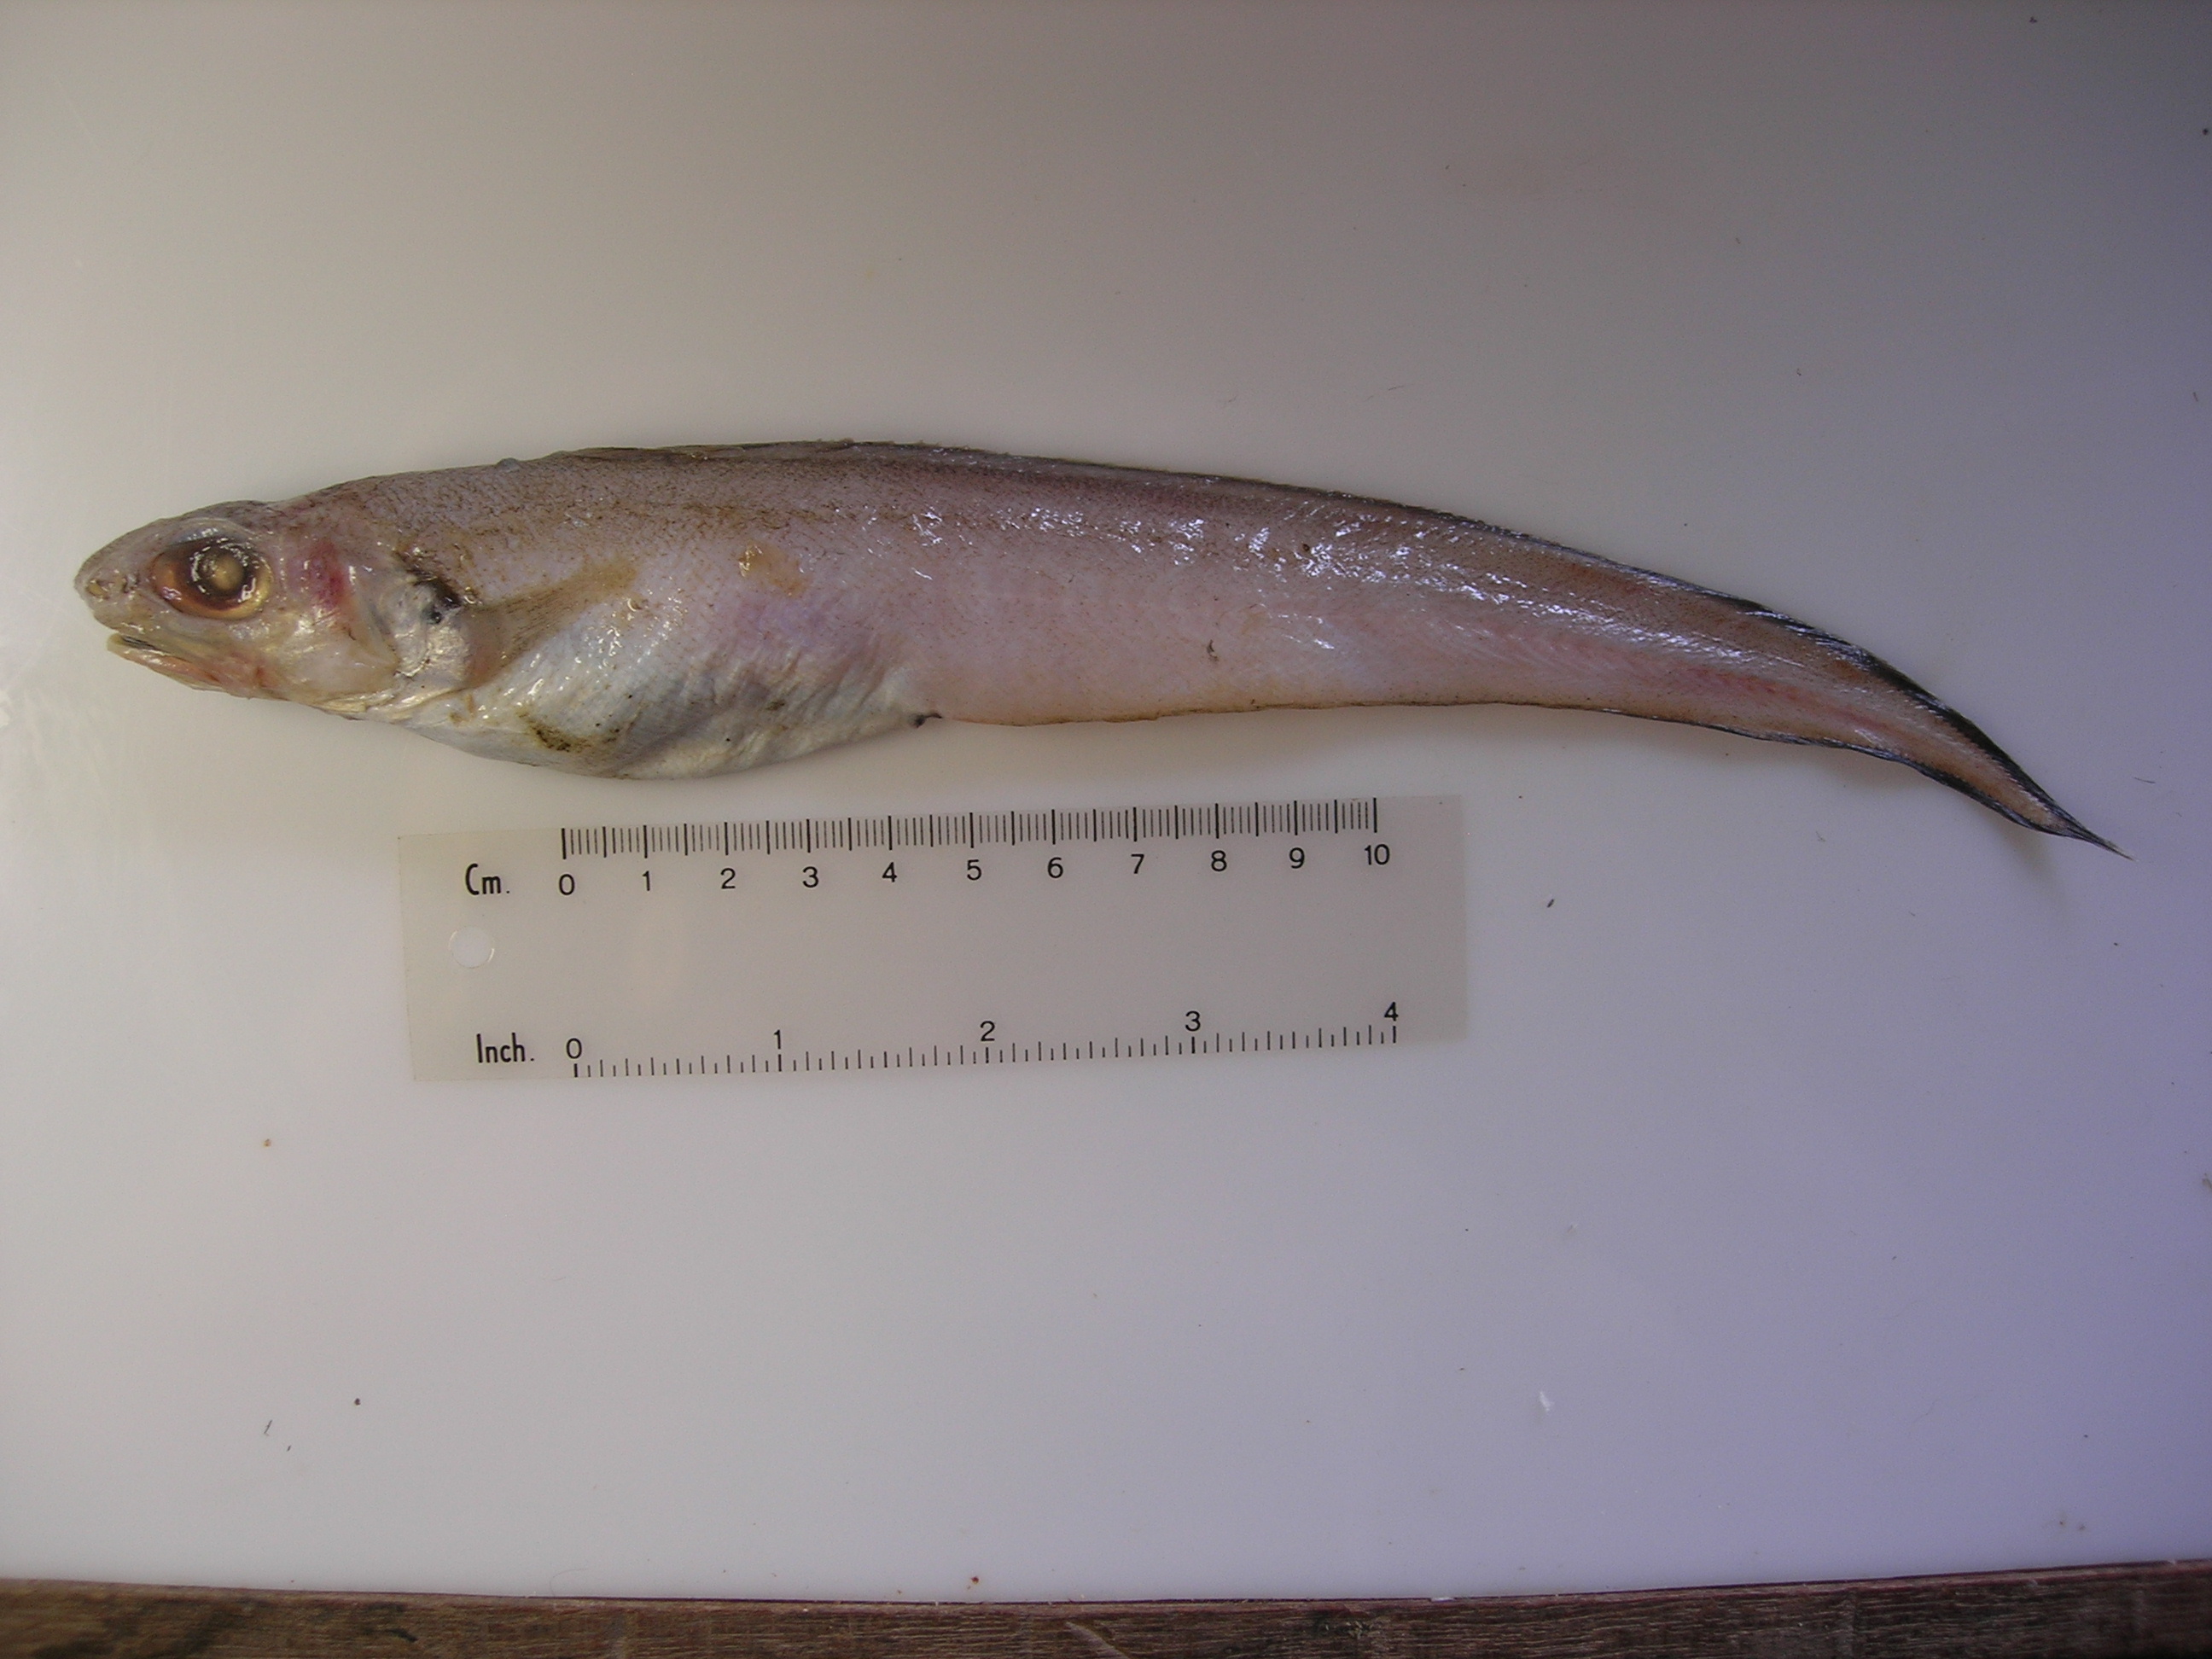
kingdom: Animalia
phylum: Chordata
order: Ophidiiformes
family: Ophidiidae
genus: Selachophidium
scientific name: Selachophidium guentheri
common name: Barbed brotula
